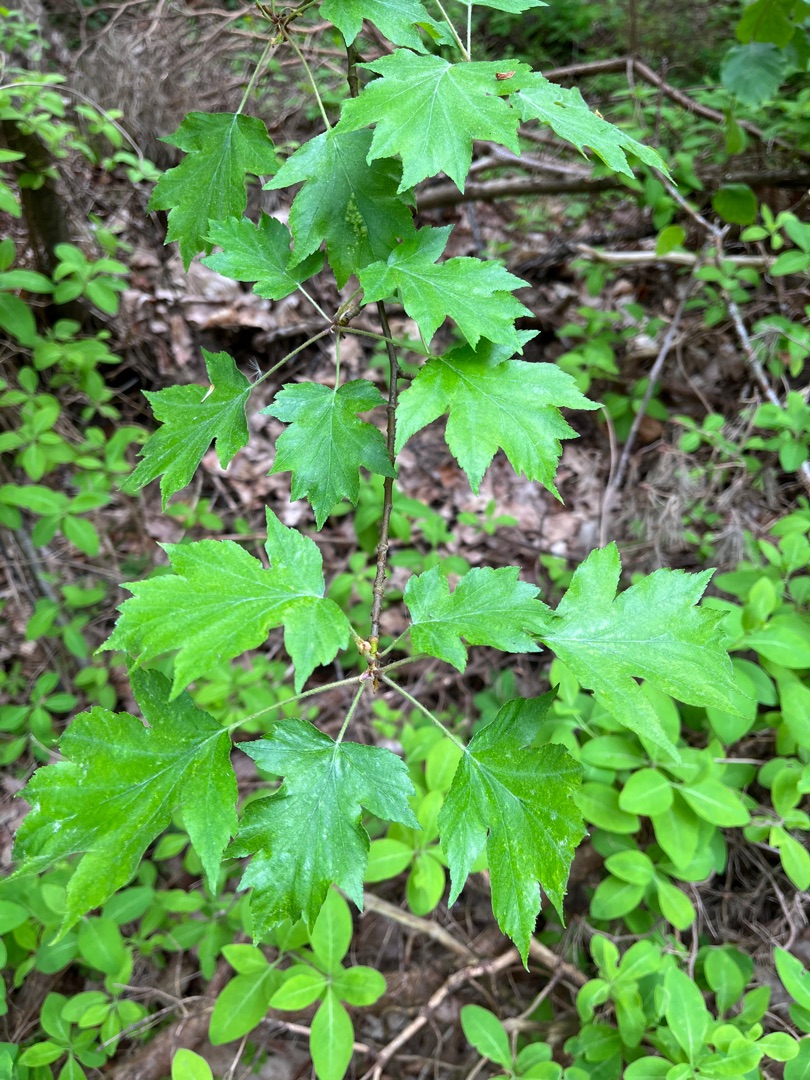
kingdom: Plantae
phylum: Tracheophyta
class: Magnoliopsida
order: Rosales
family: Rosaceae
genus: Torminalis
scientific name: Torminalis glaberrima
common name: Tarmvrid-røn
